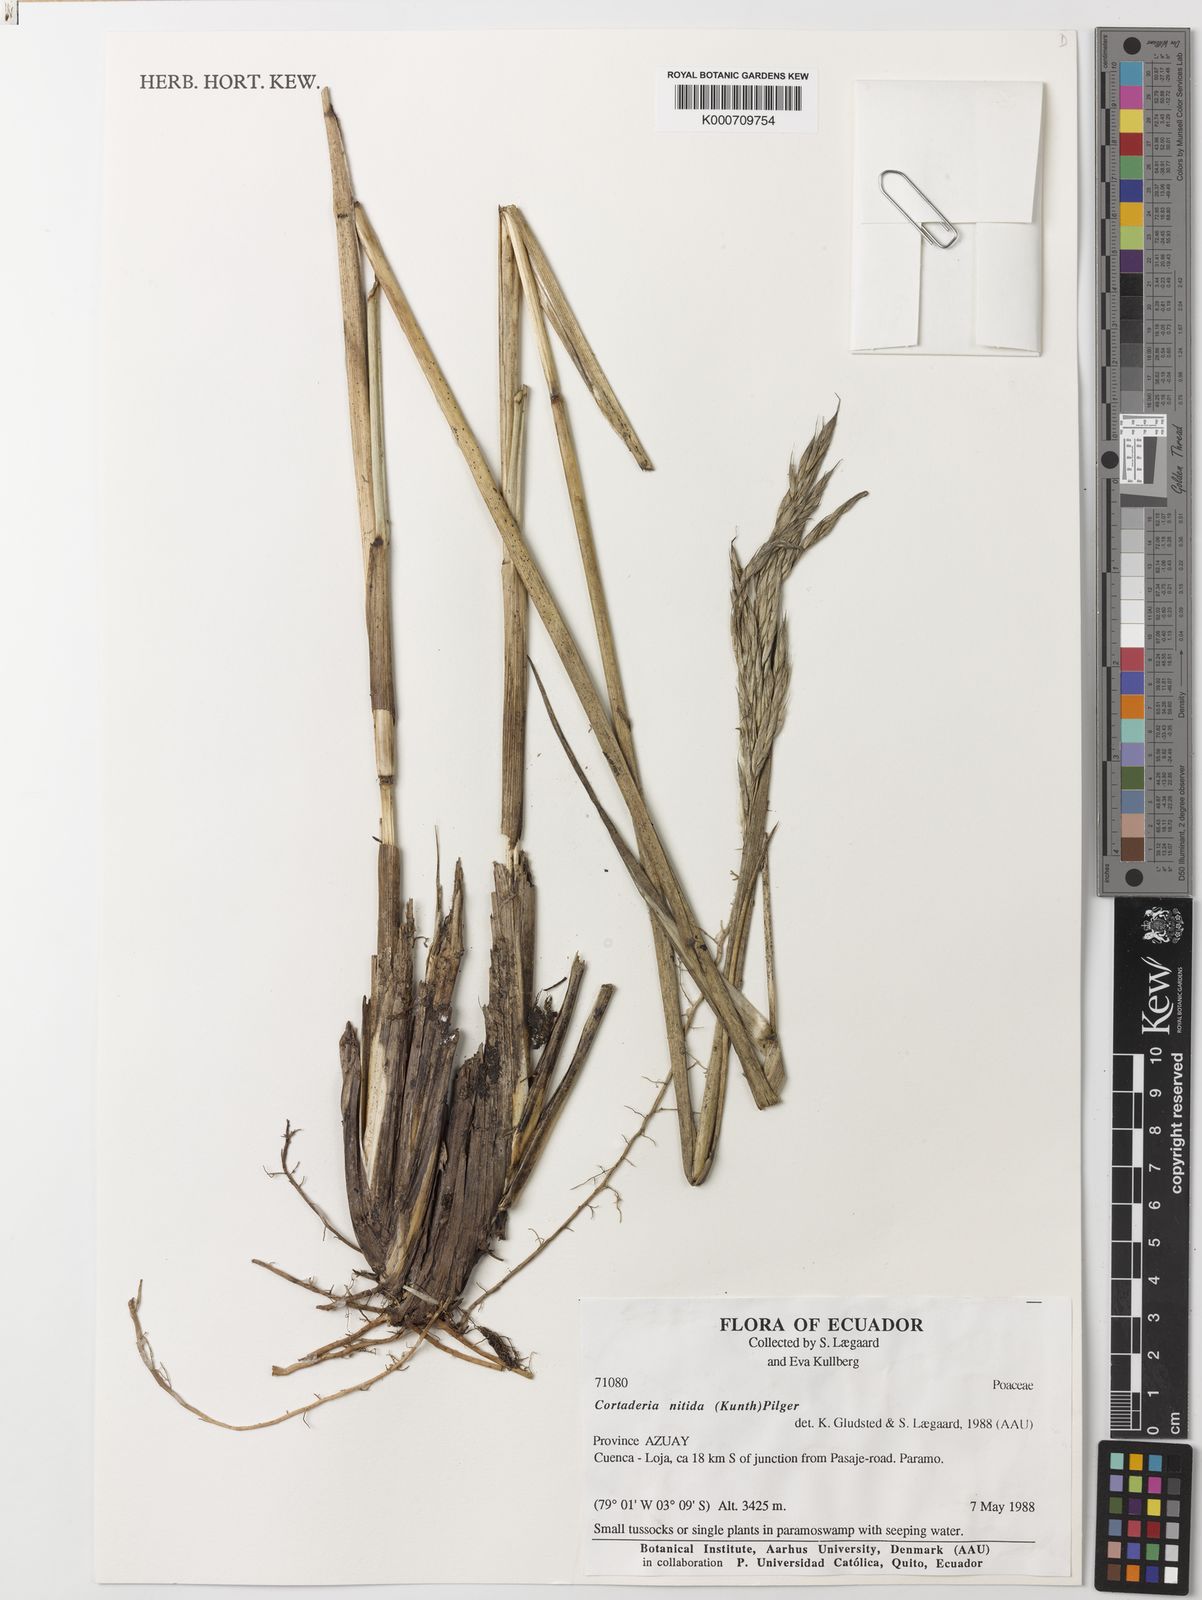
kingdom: Plantae
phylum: Tracheophyta
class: Liliopsida
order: Poales
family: Poaceae
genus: Cortaderia
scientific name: Cortaderia nitida
